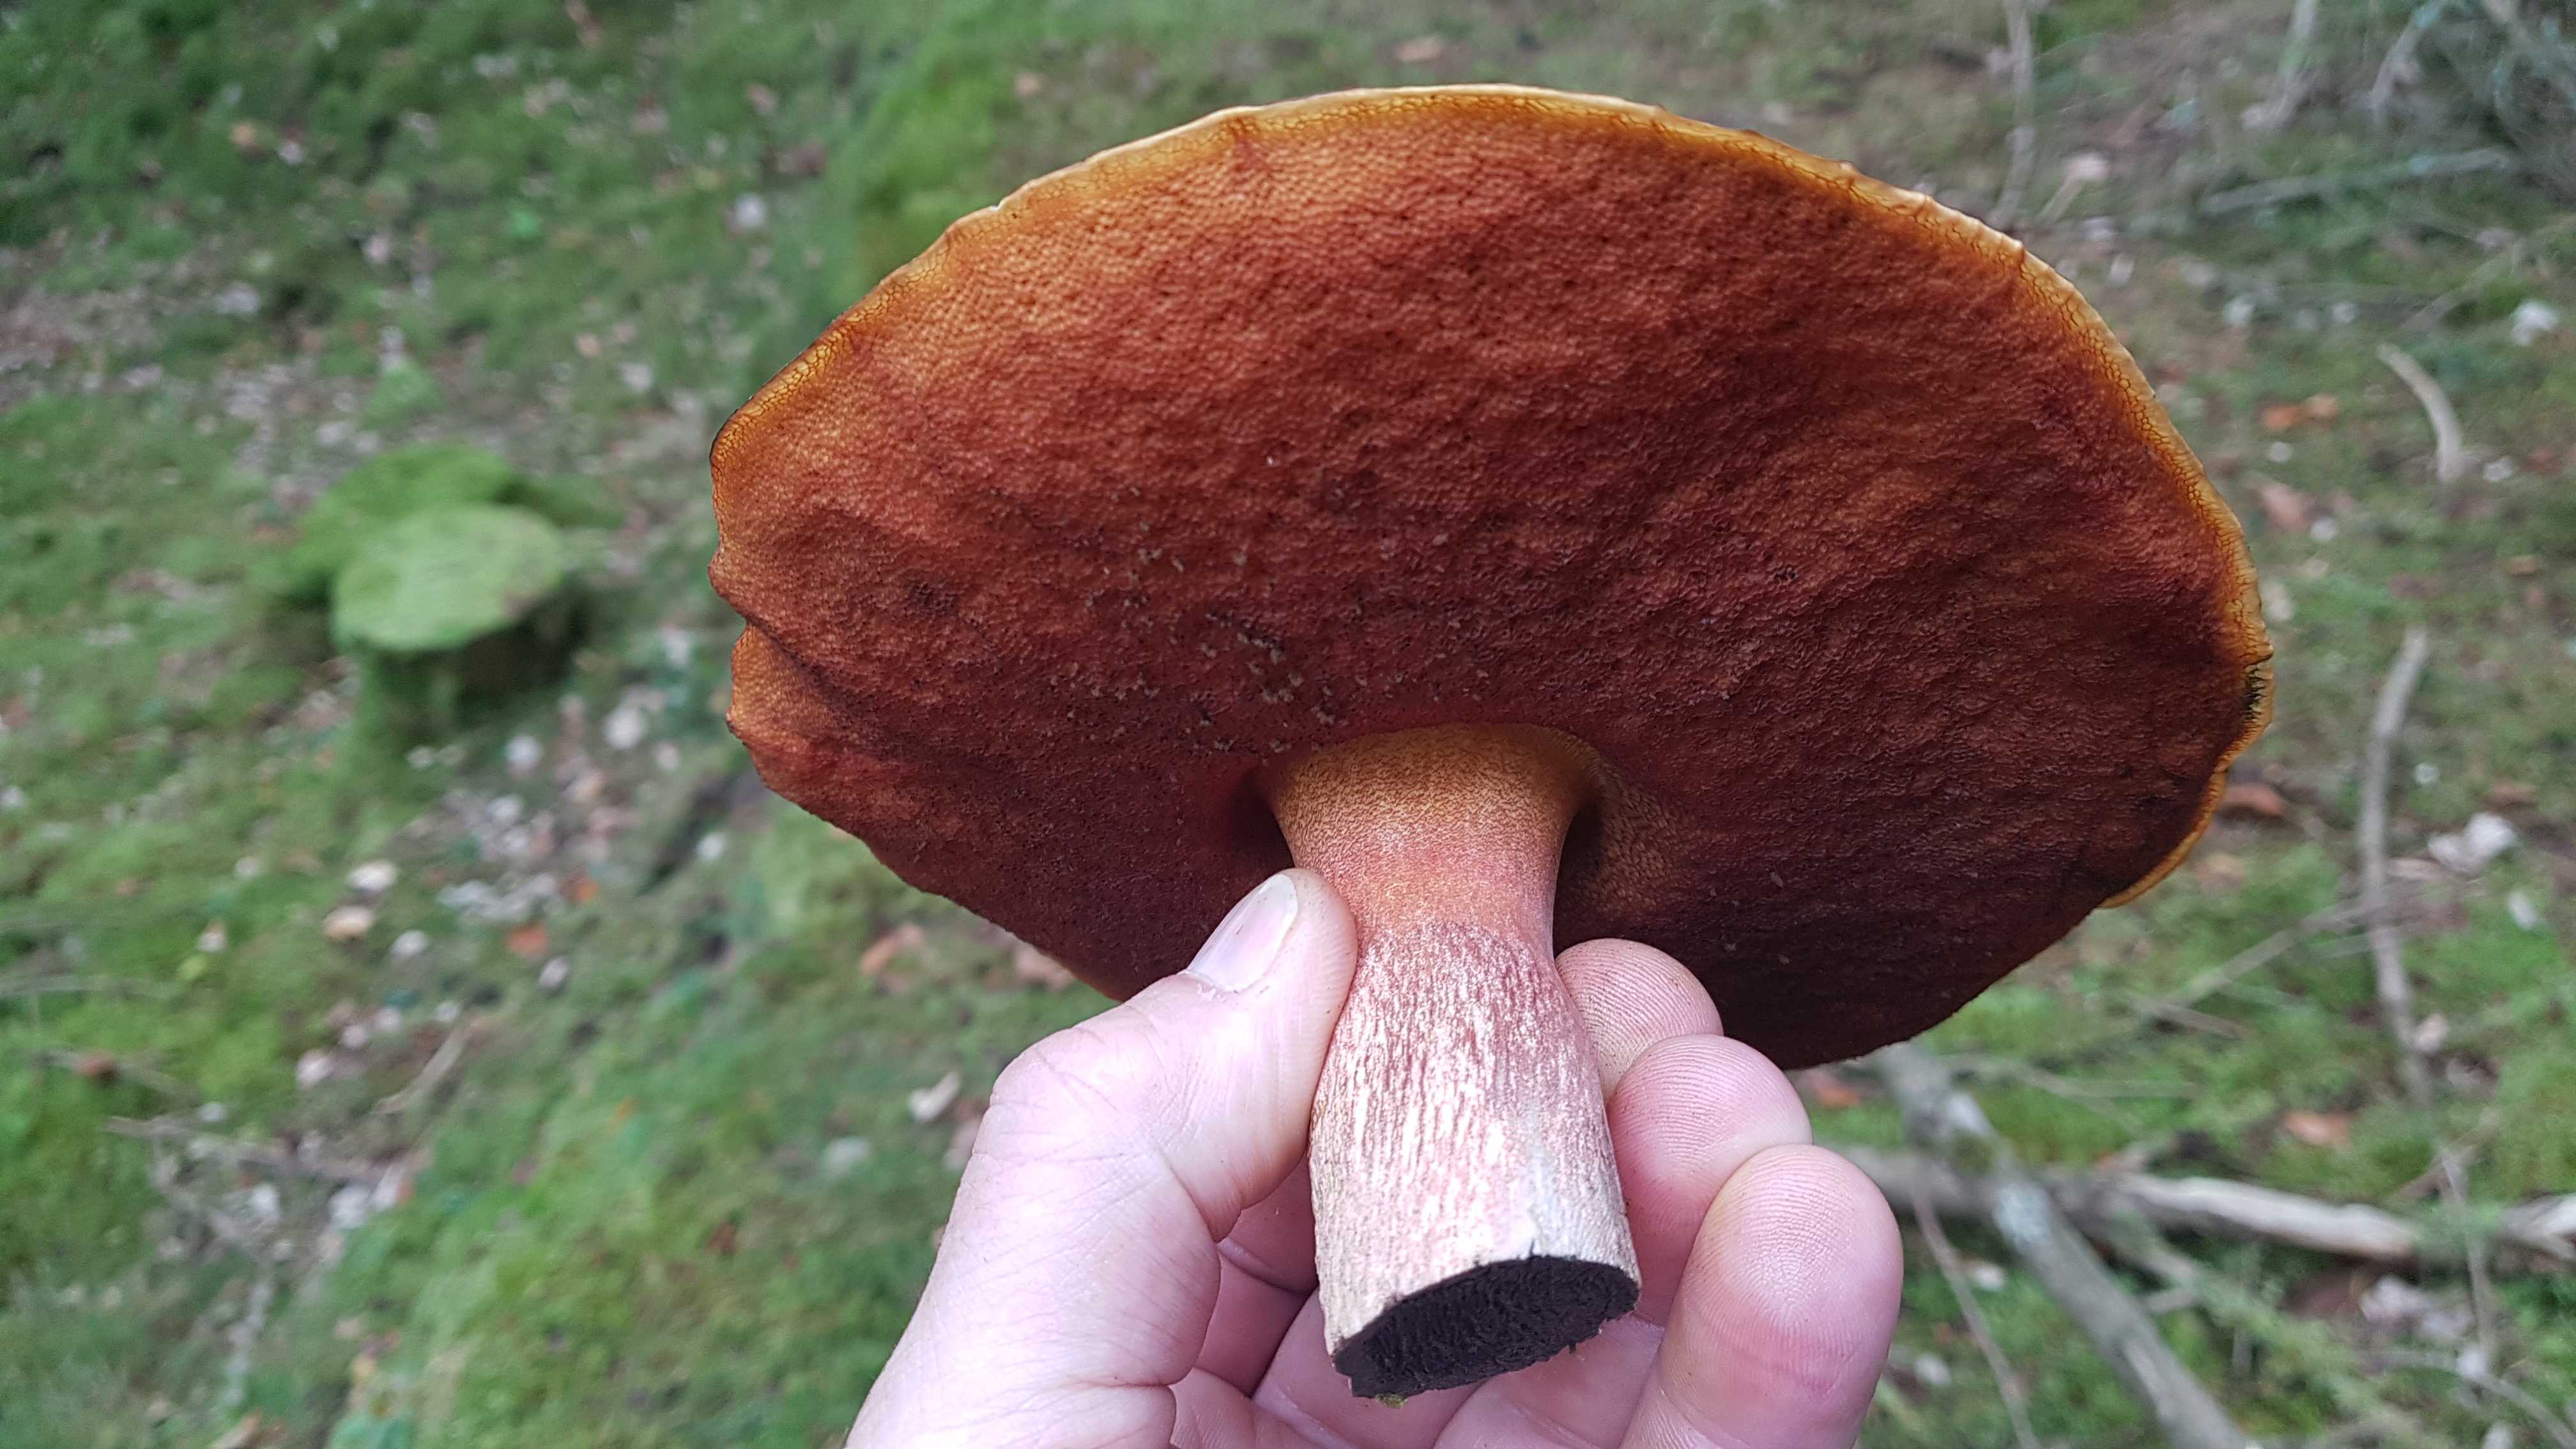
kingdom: Fungi
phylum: Basidiomycota
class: Agaricomycetes
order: Boletales
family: Boletaceae
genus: Neoboletus
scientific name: Neoboletus erythropus
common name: punktstokket indigorørhat
